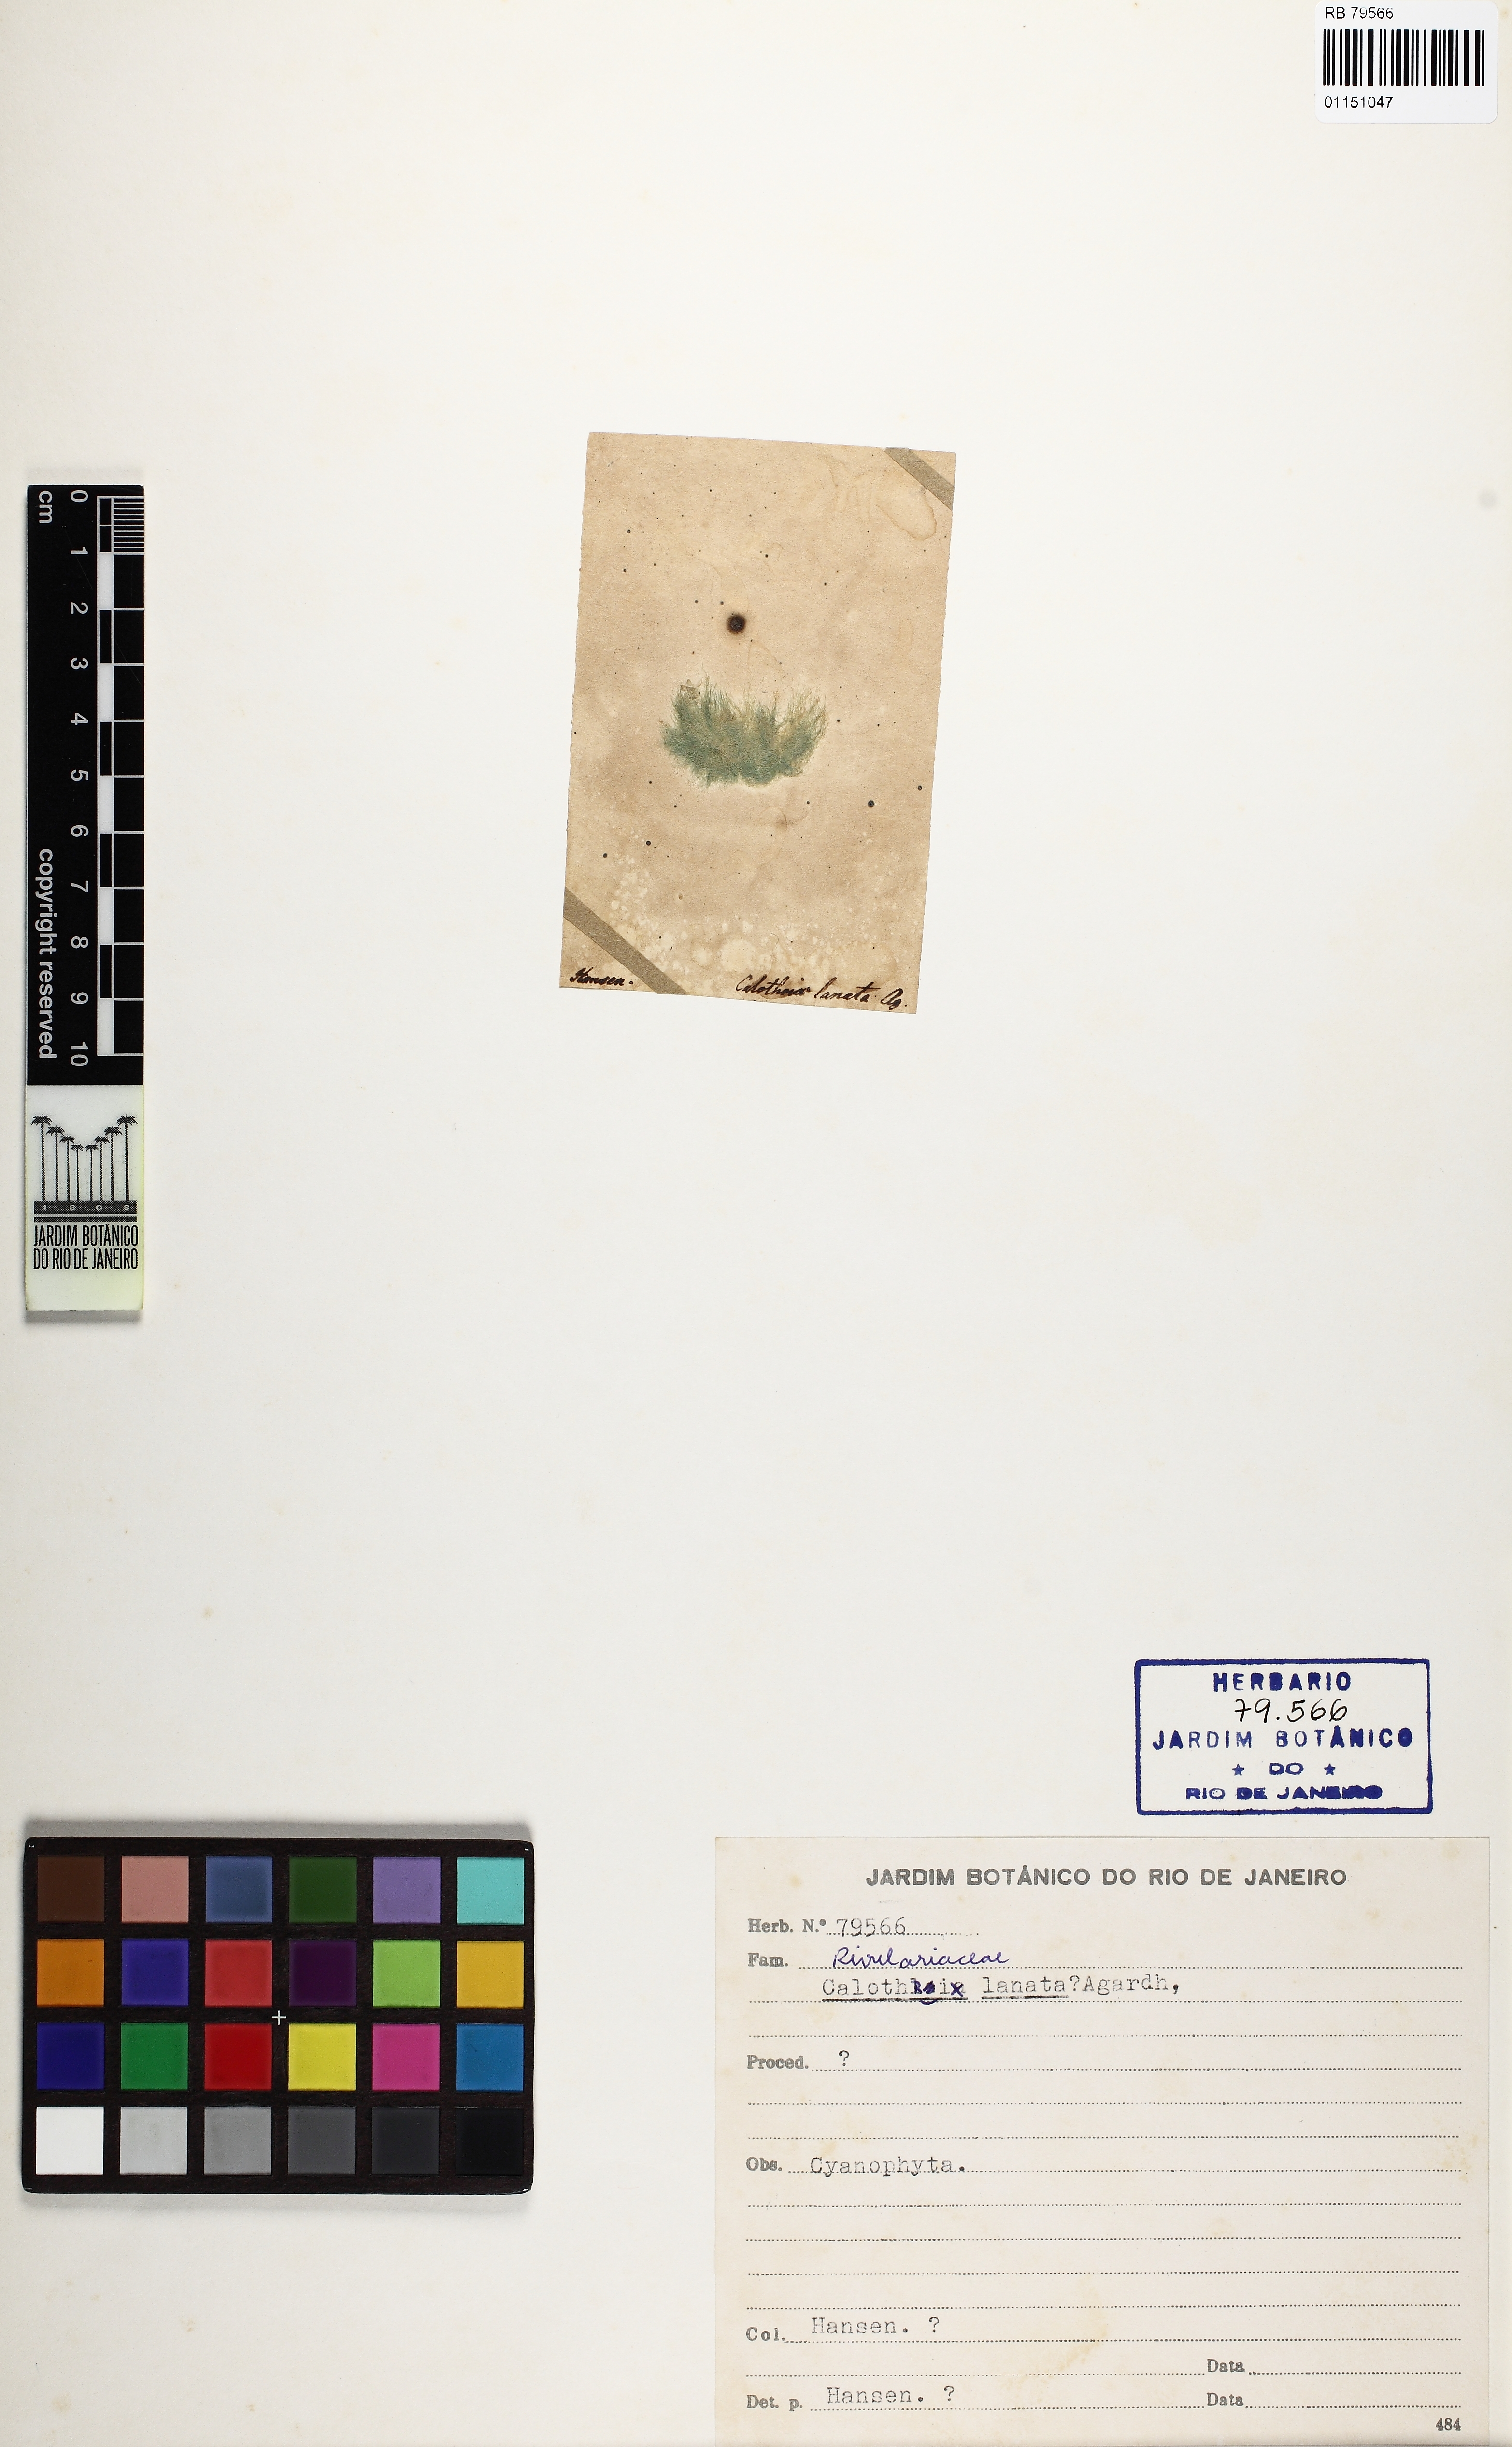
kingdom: Bacteria
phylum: Cyanobacteria
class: Cyanobacteriia
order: Cyanobacteriales
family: Rivulariaceae
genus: Calothrix
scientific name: Calothrix
